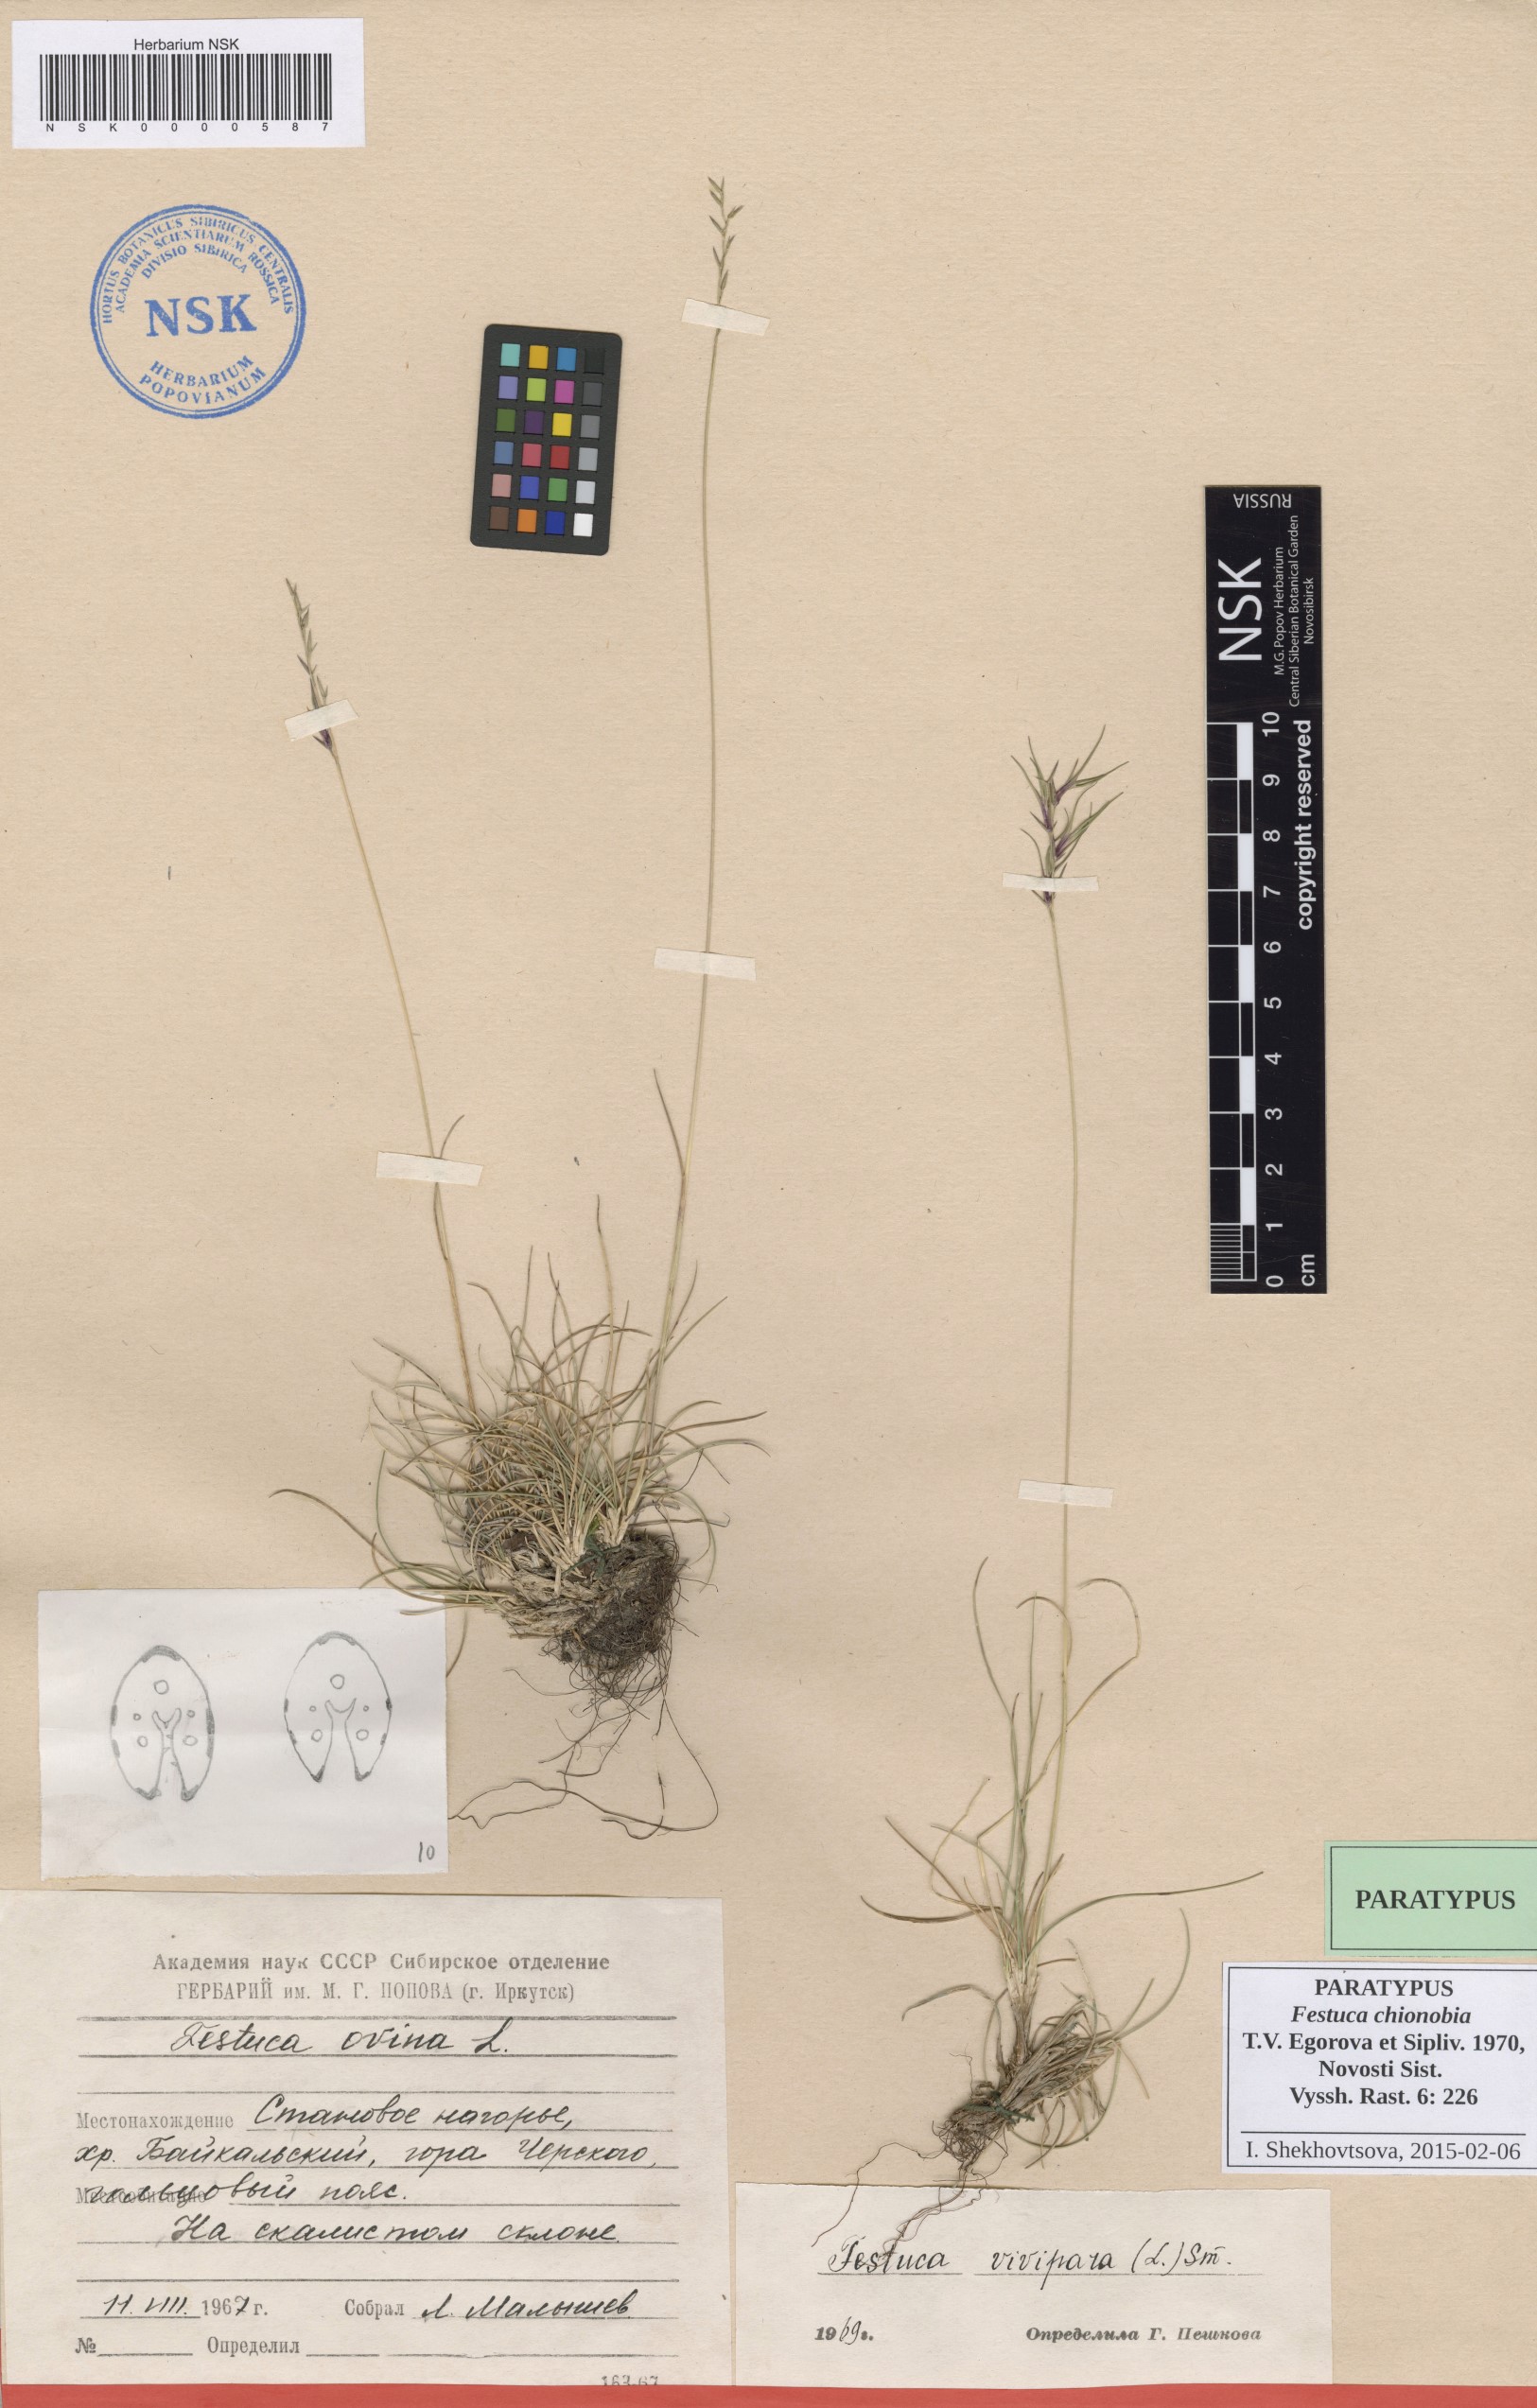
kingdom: Plantae
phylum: Tracheophyta
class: Liliopsida
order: Poales
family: Poaceae
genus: Festuca
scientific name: Festuca auriculata
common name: Eared fescue
